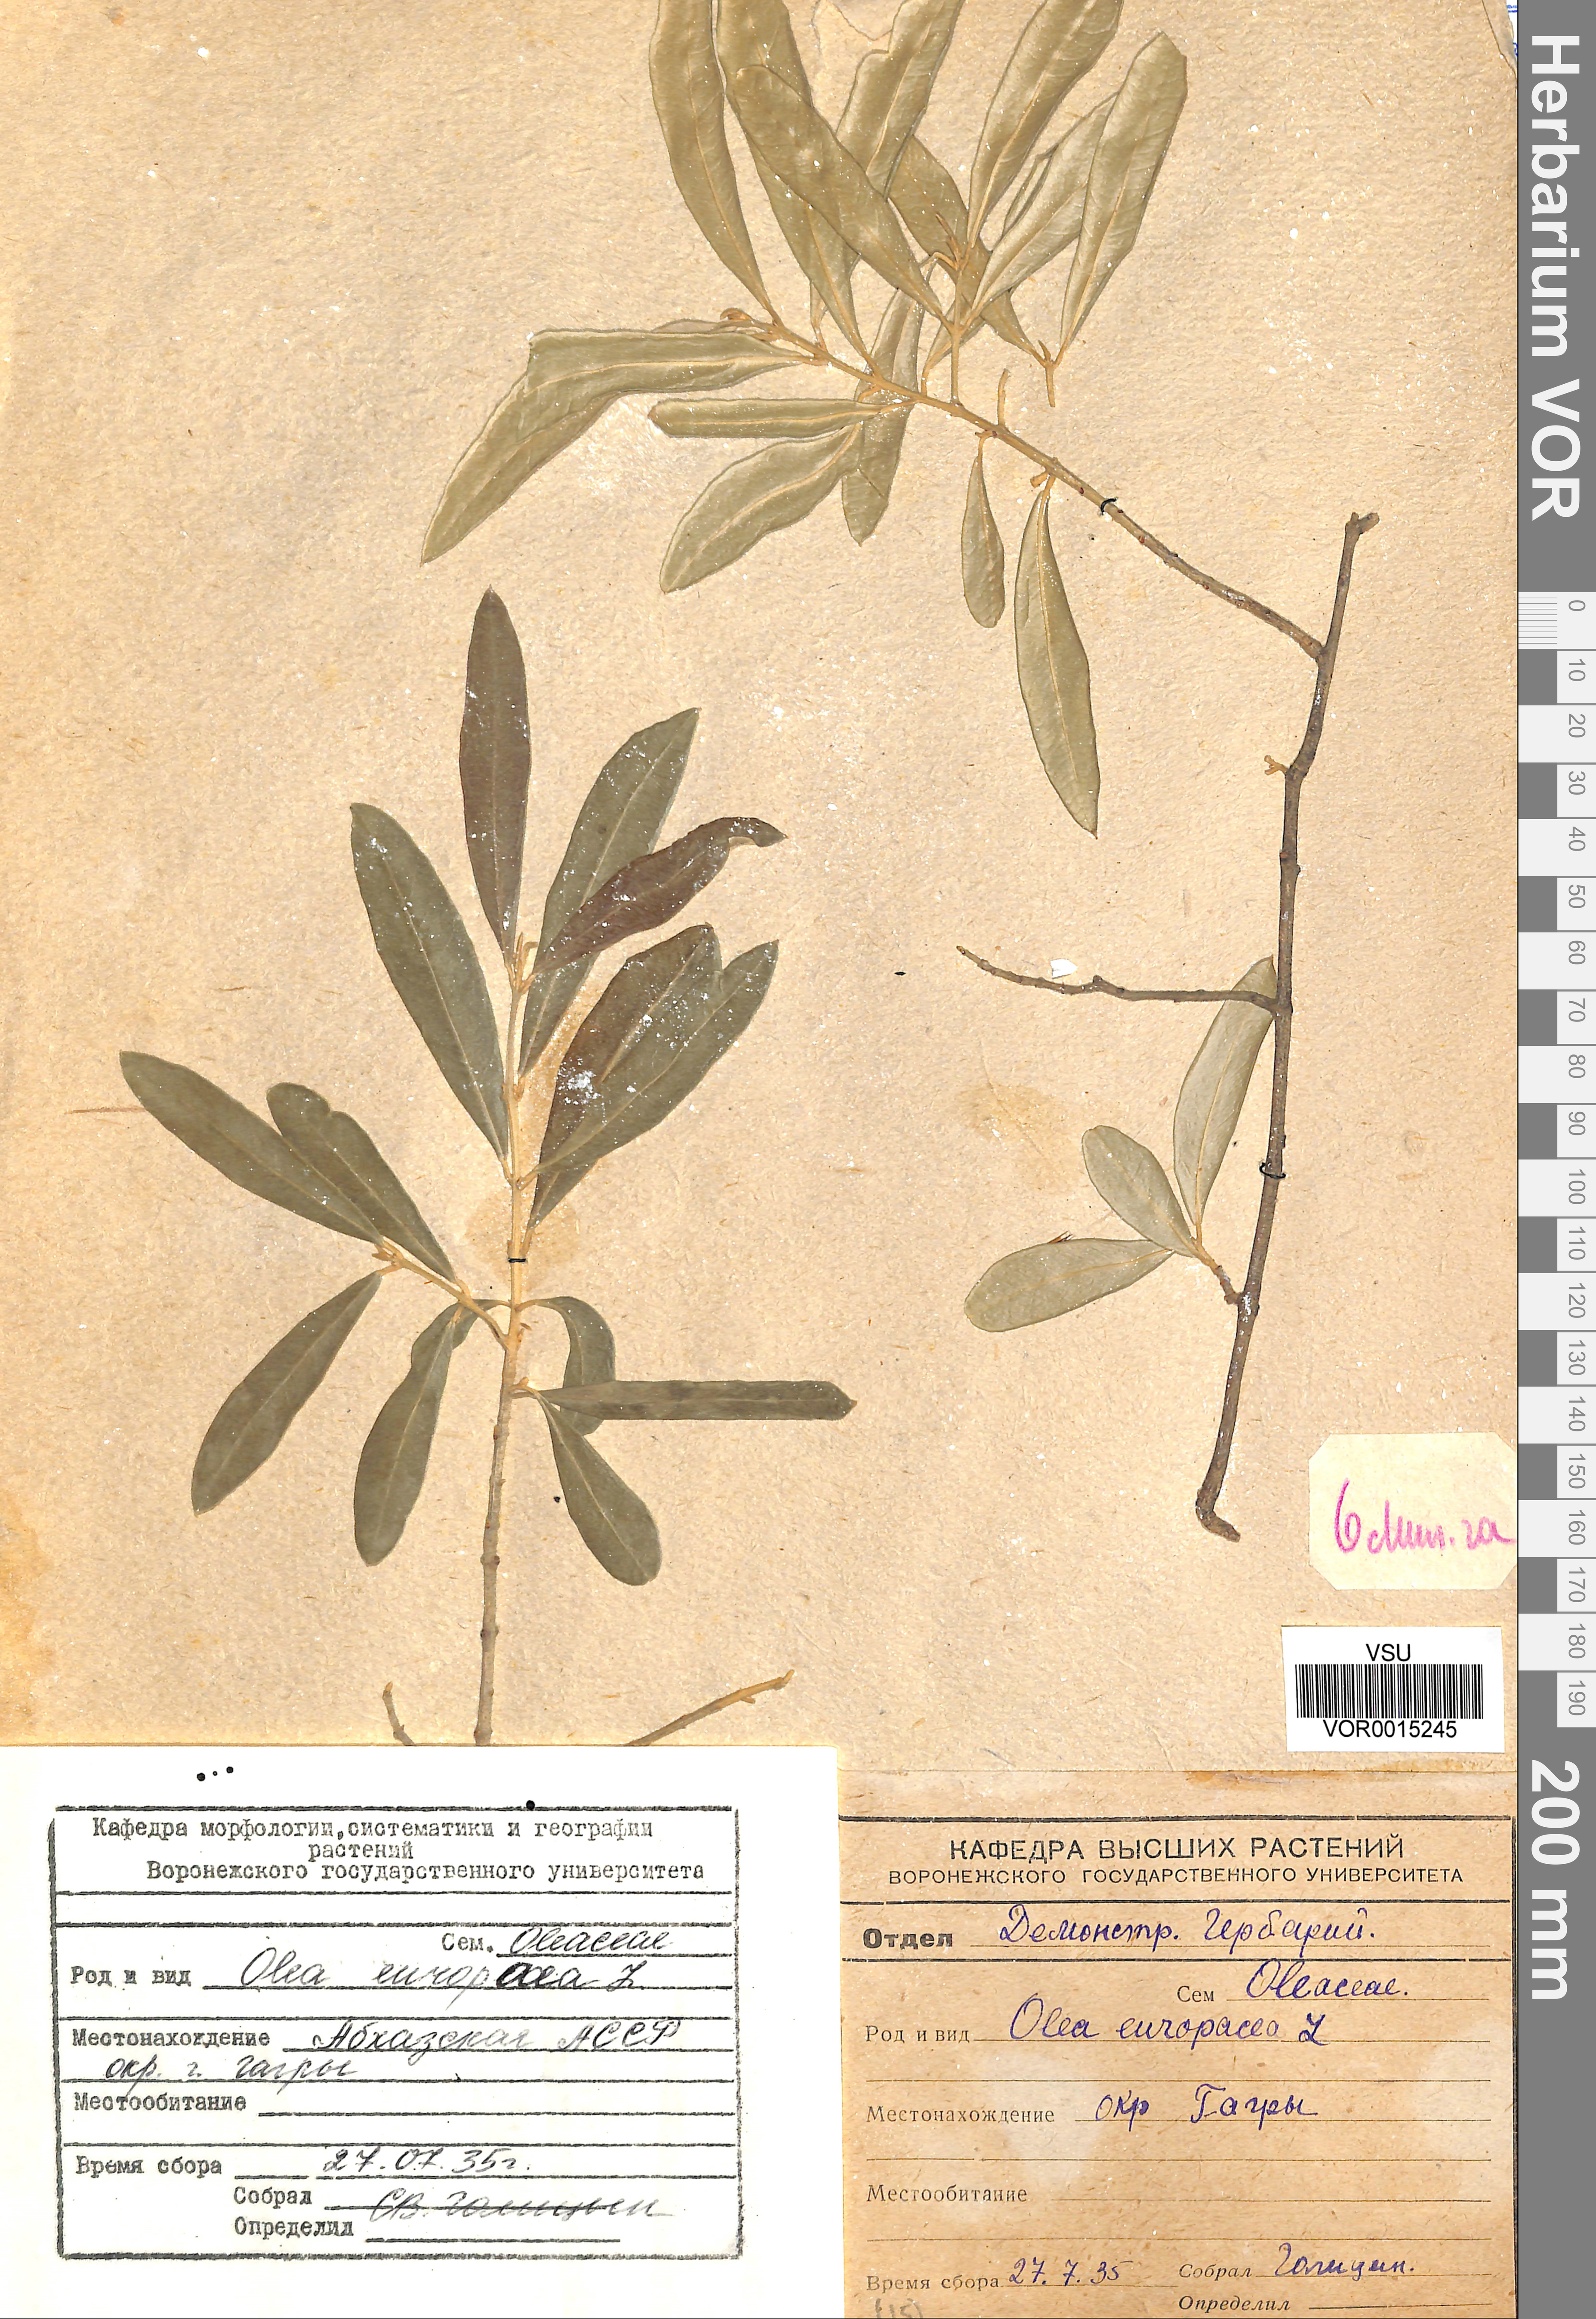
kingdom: Plantae
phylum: Tracheophyta
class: Magnoliopsida
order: Lamiales
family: Oleaceae
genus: Olea
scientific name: Olea europaea
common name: Olive
